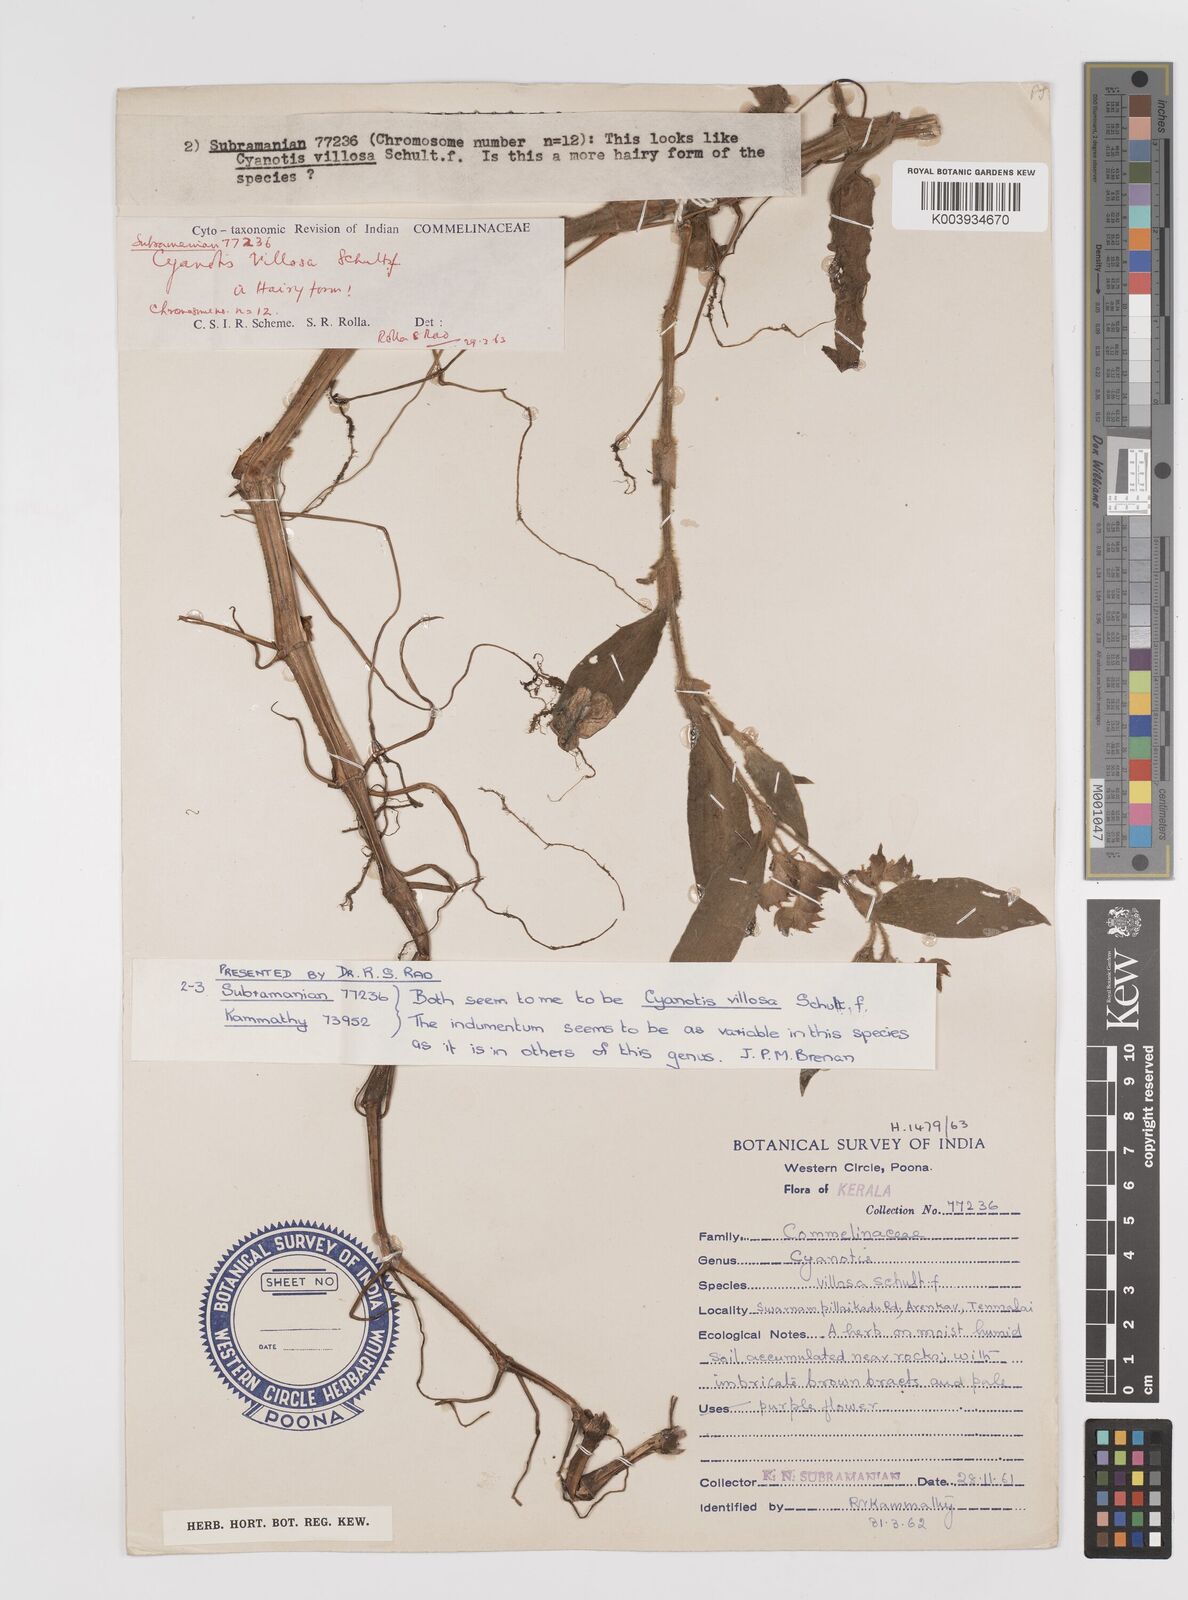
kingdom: Plantae
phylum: Tracheophyta
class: Liliopsida
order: Commelinales
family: Commelinaceae
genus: Cyanotis
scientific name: Cyanotis villosa
